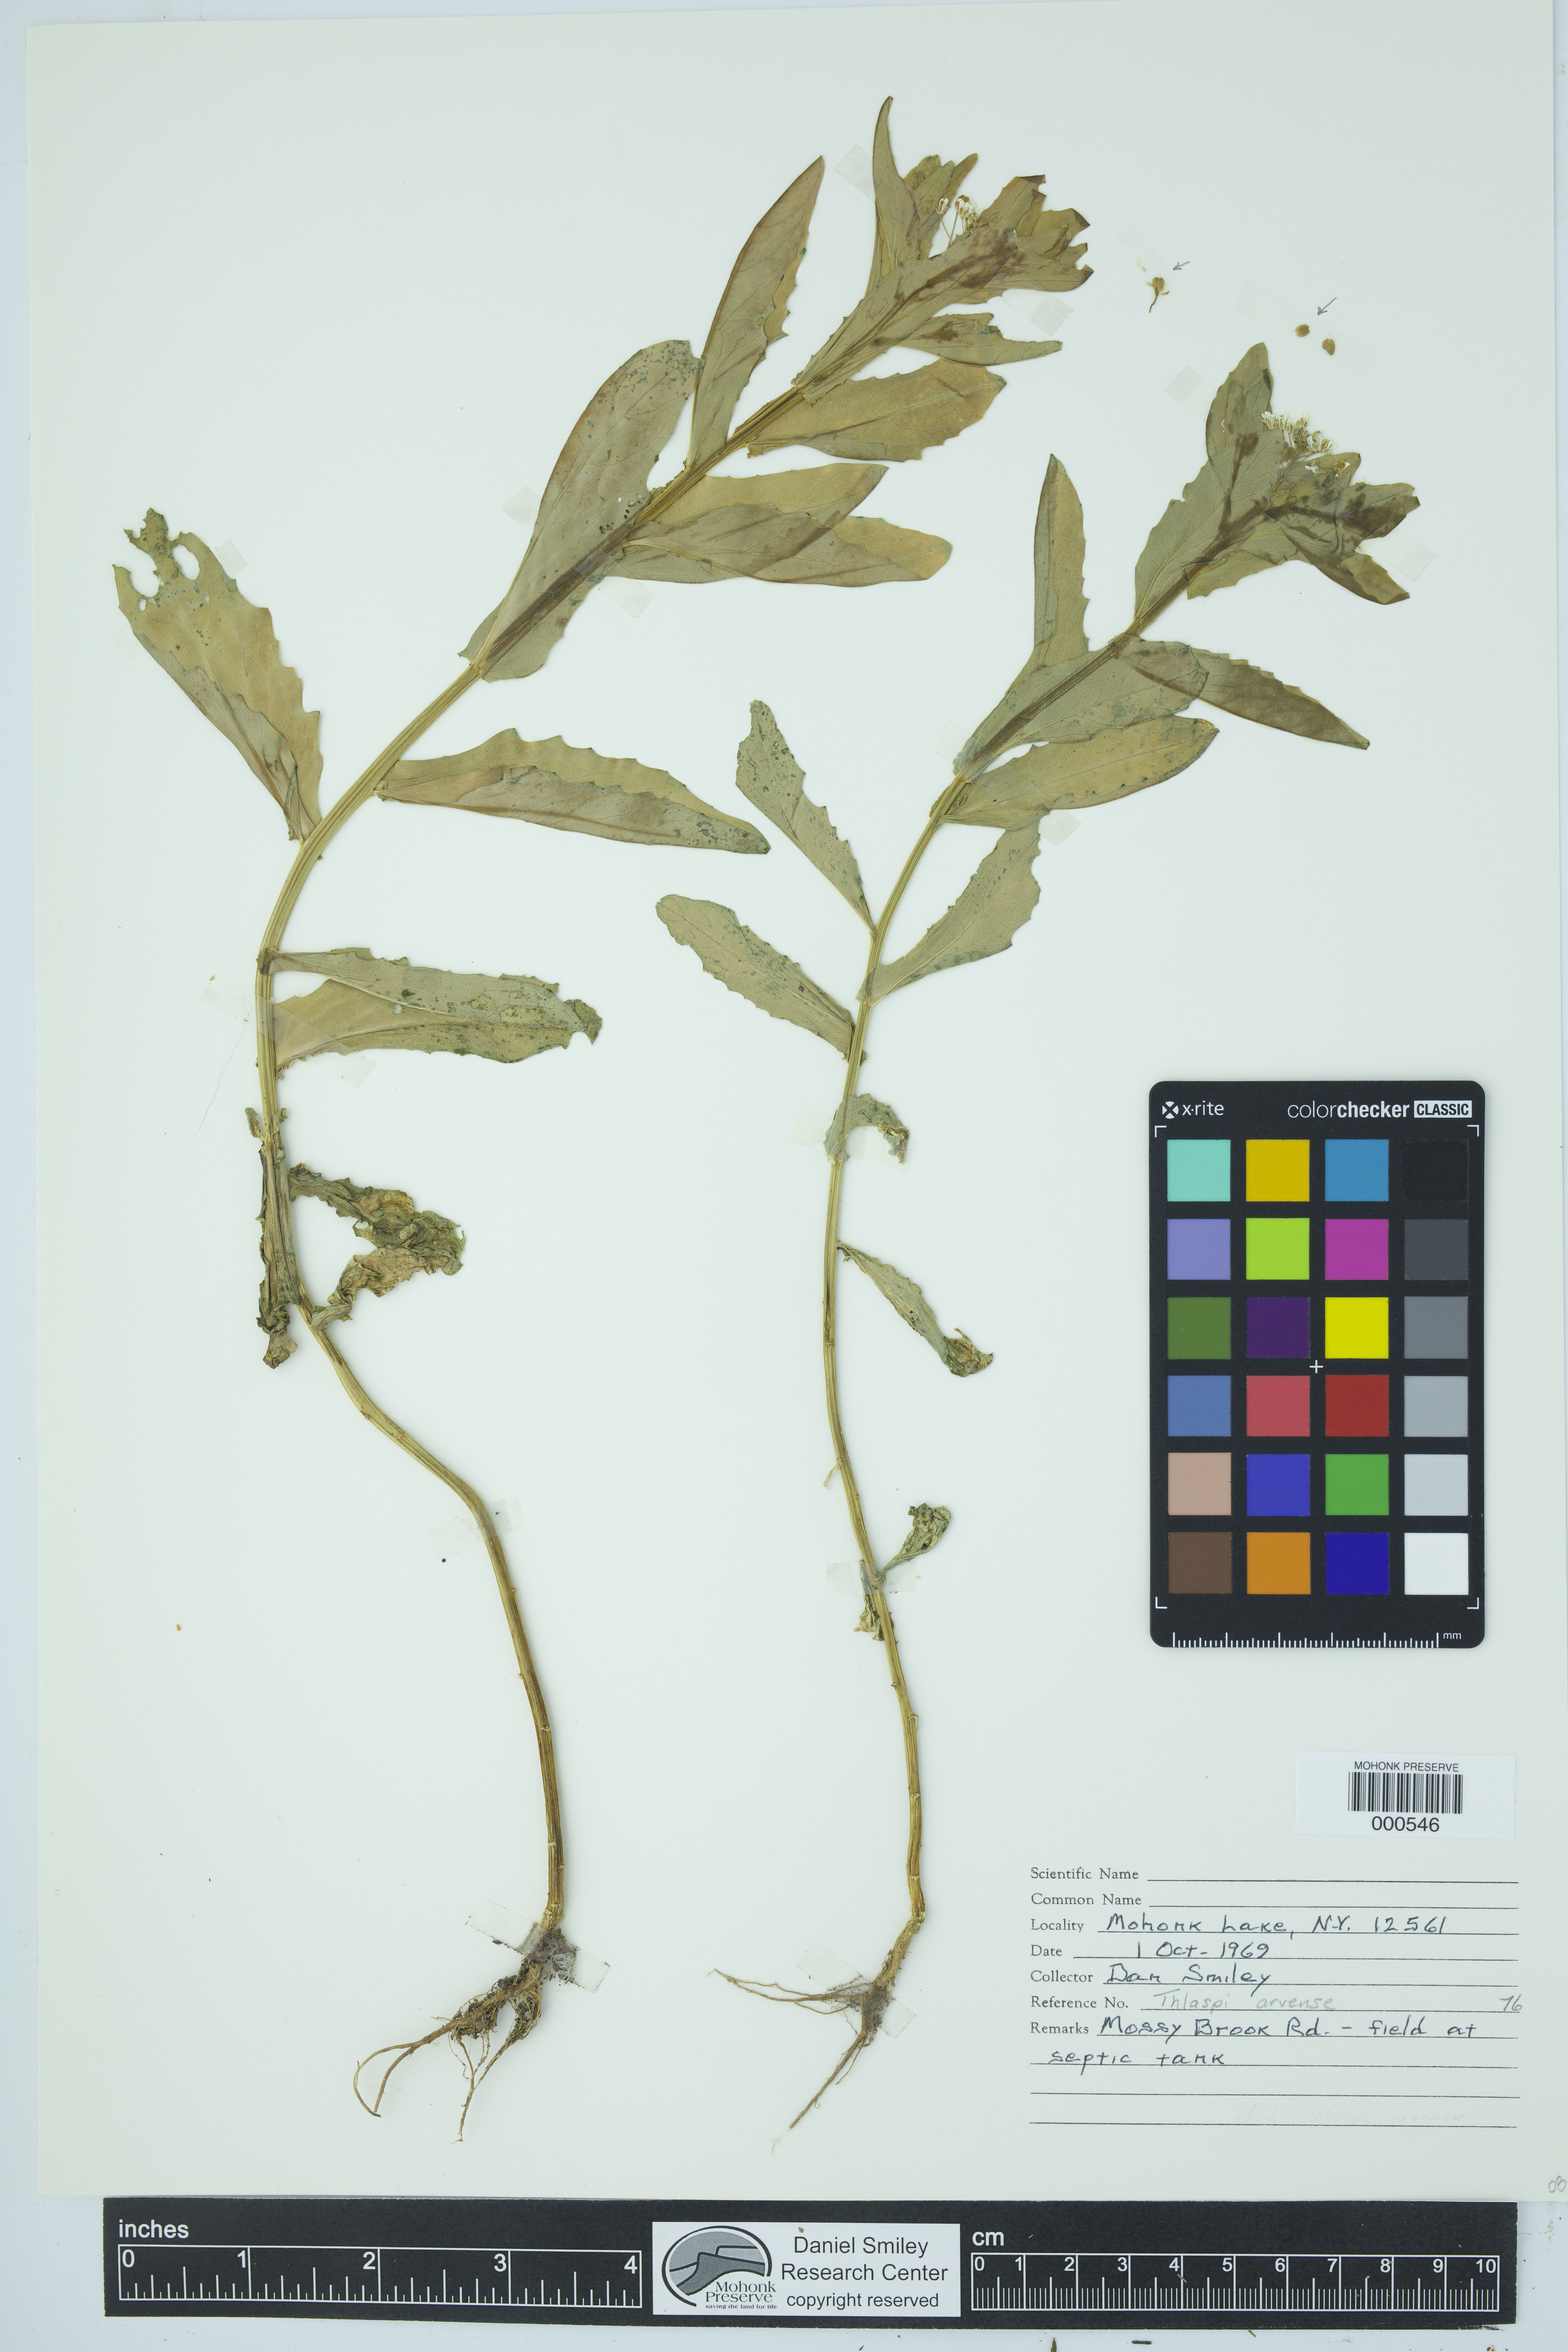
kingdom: Plantae
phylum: Tracheophyta
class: Magnoliopsida
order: Brassicales
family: Brassicaceae
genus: Thlaspi
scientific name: Thlaspi arvense
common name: Field pennycress
